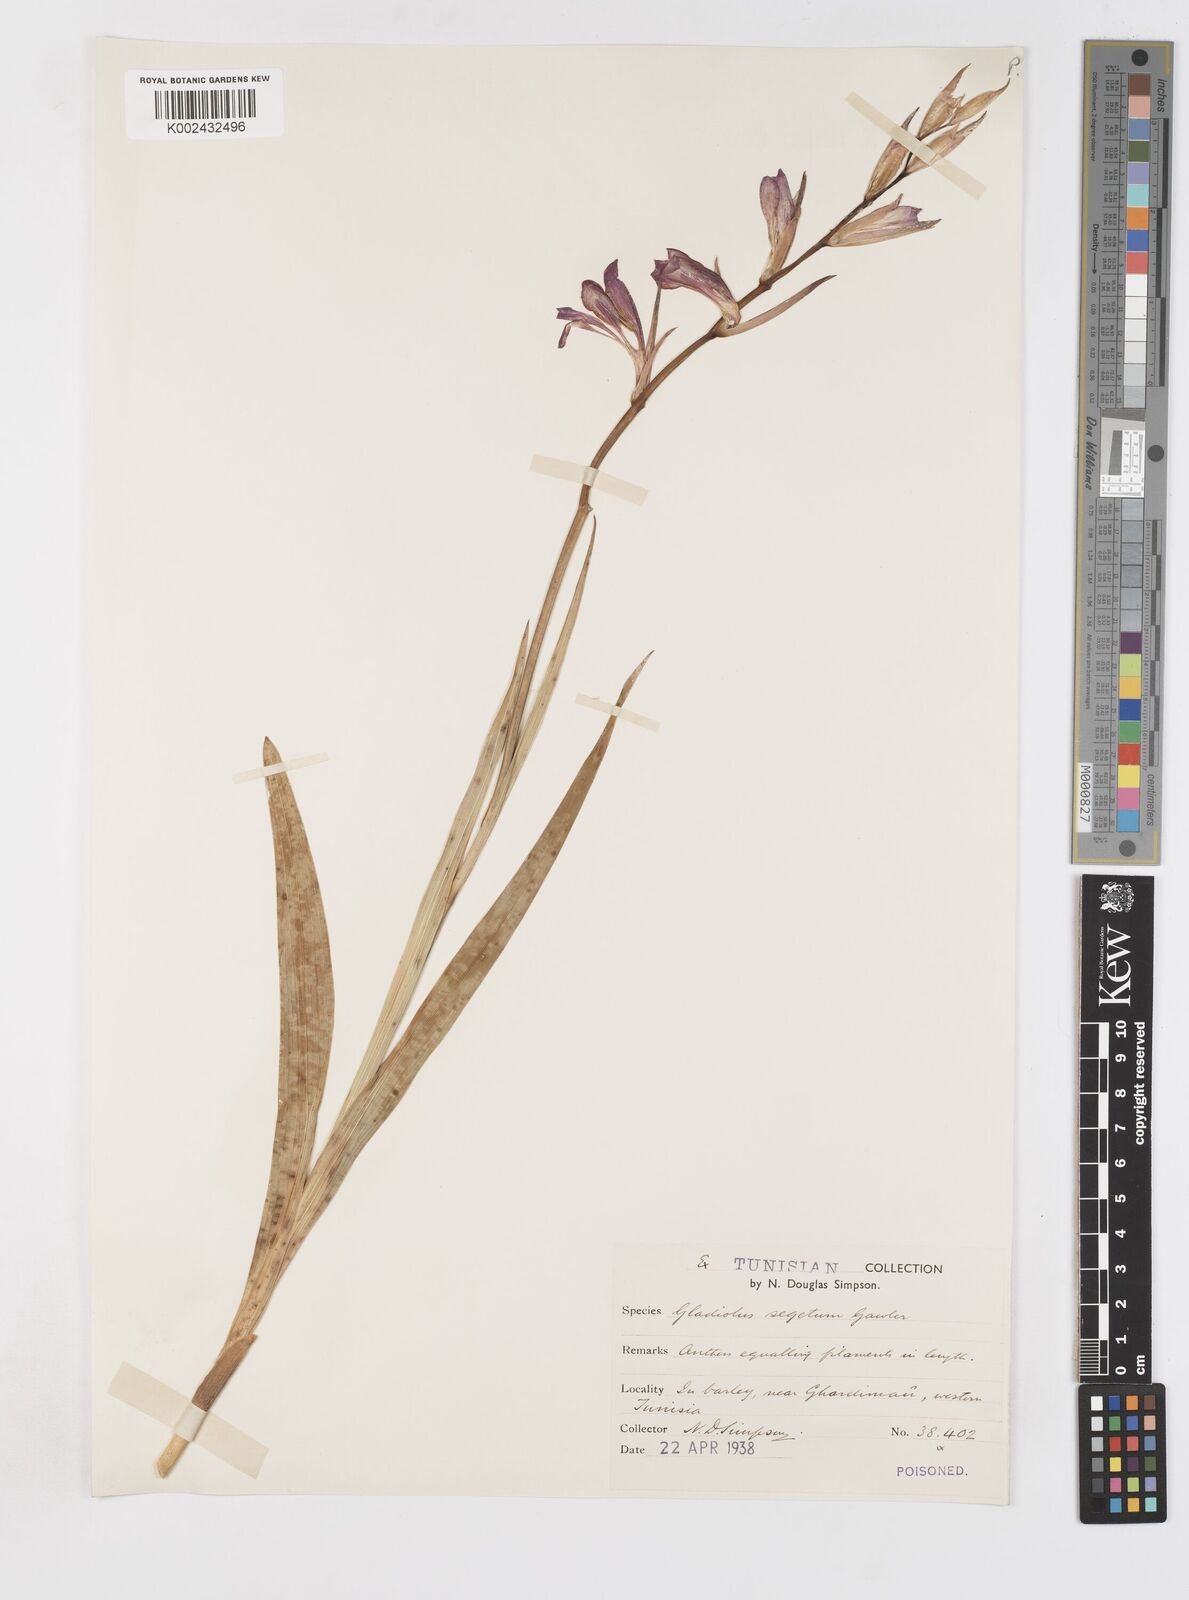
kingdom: Plantae
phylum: Tracheophyta
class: Liliopsida
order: Asparagales
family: Iridaceae
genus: Gladiolus
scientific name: Gladiolus italicus
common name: Field gladiolus
